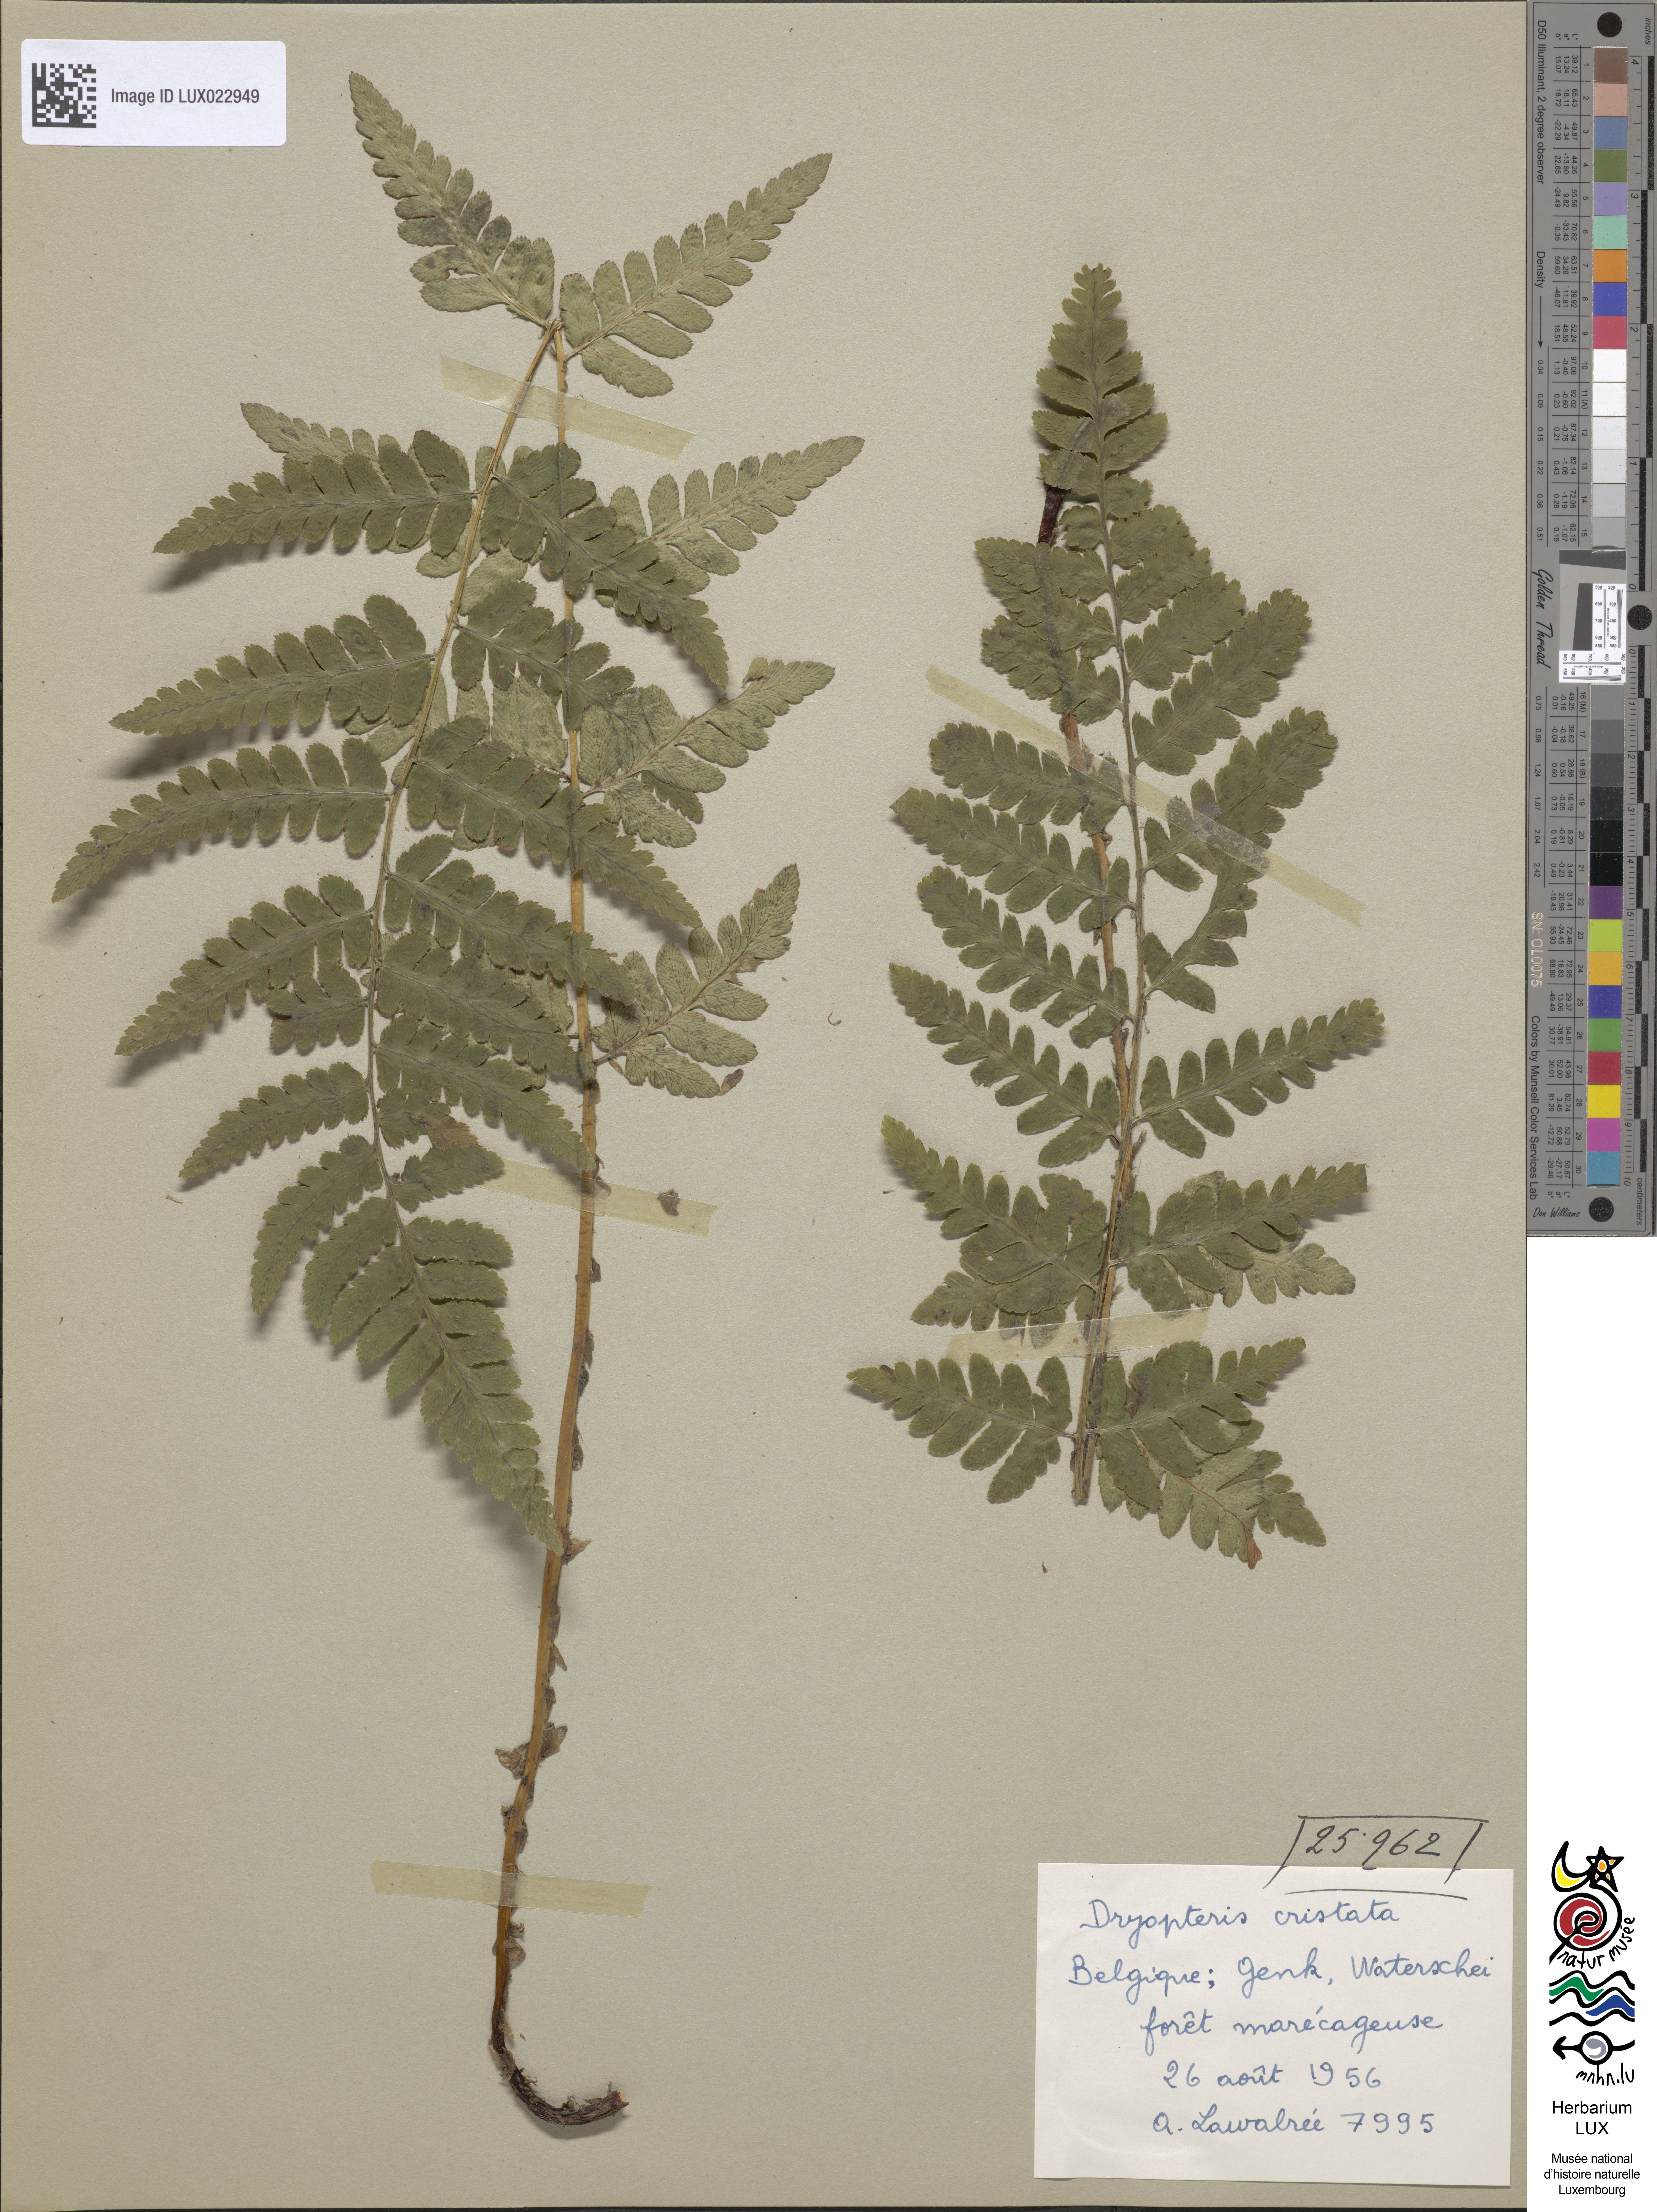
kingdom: Plantae
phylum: Tracheophyta
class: Polypodiopsida
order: Polypodiales
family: Dryopteridaceae
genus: Dryopteris
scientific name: Dryopteris cristata
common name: Crested wood fern
